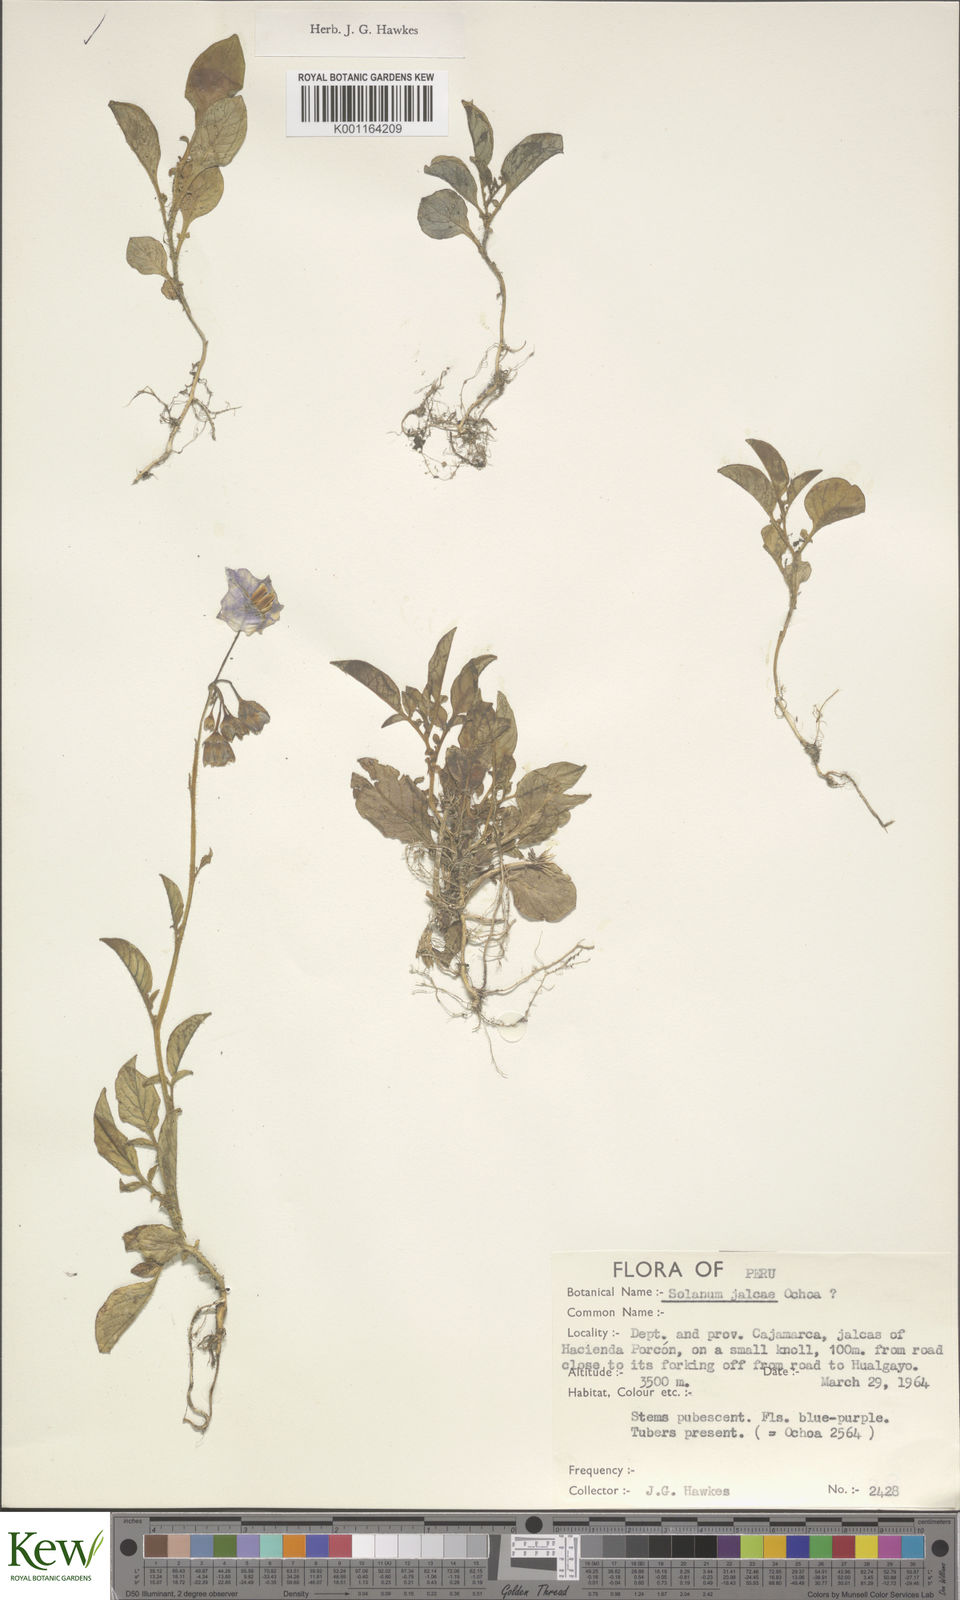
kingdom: Plantae
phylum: Tracheophyta
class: Magnoliopsida
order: Solanales
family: Solanaceae
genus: Solanum
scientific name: Solanum chomatophilum
